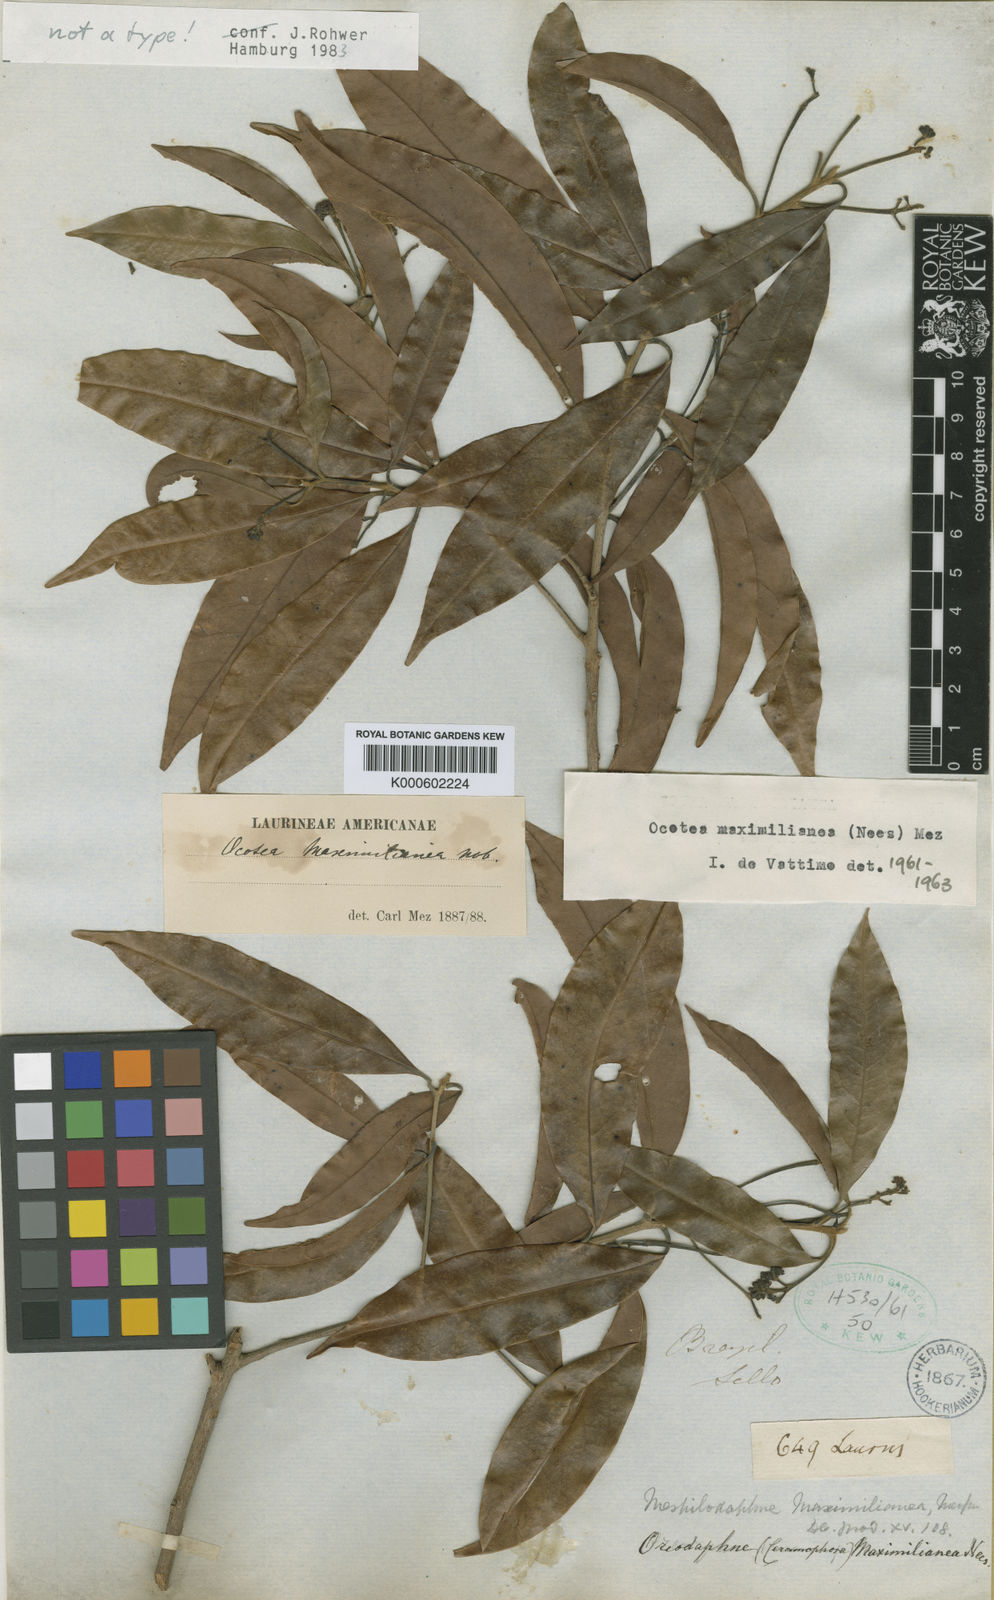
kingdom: Plantae
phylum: Tracheophyta
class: Magnoliopsida
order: Laurales
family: Lauraceae
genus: Mespilodaphne
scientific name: Mespilodaphne prolifera
